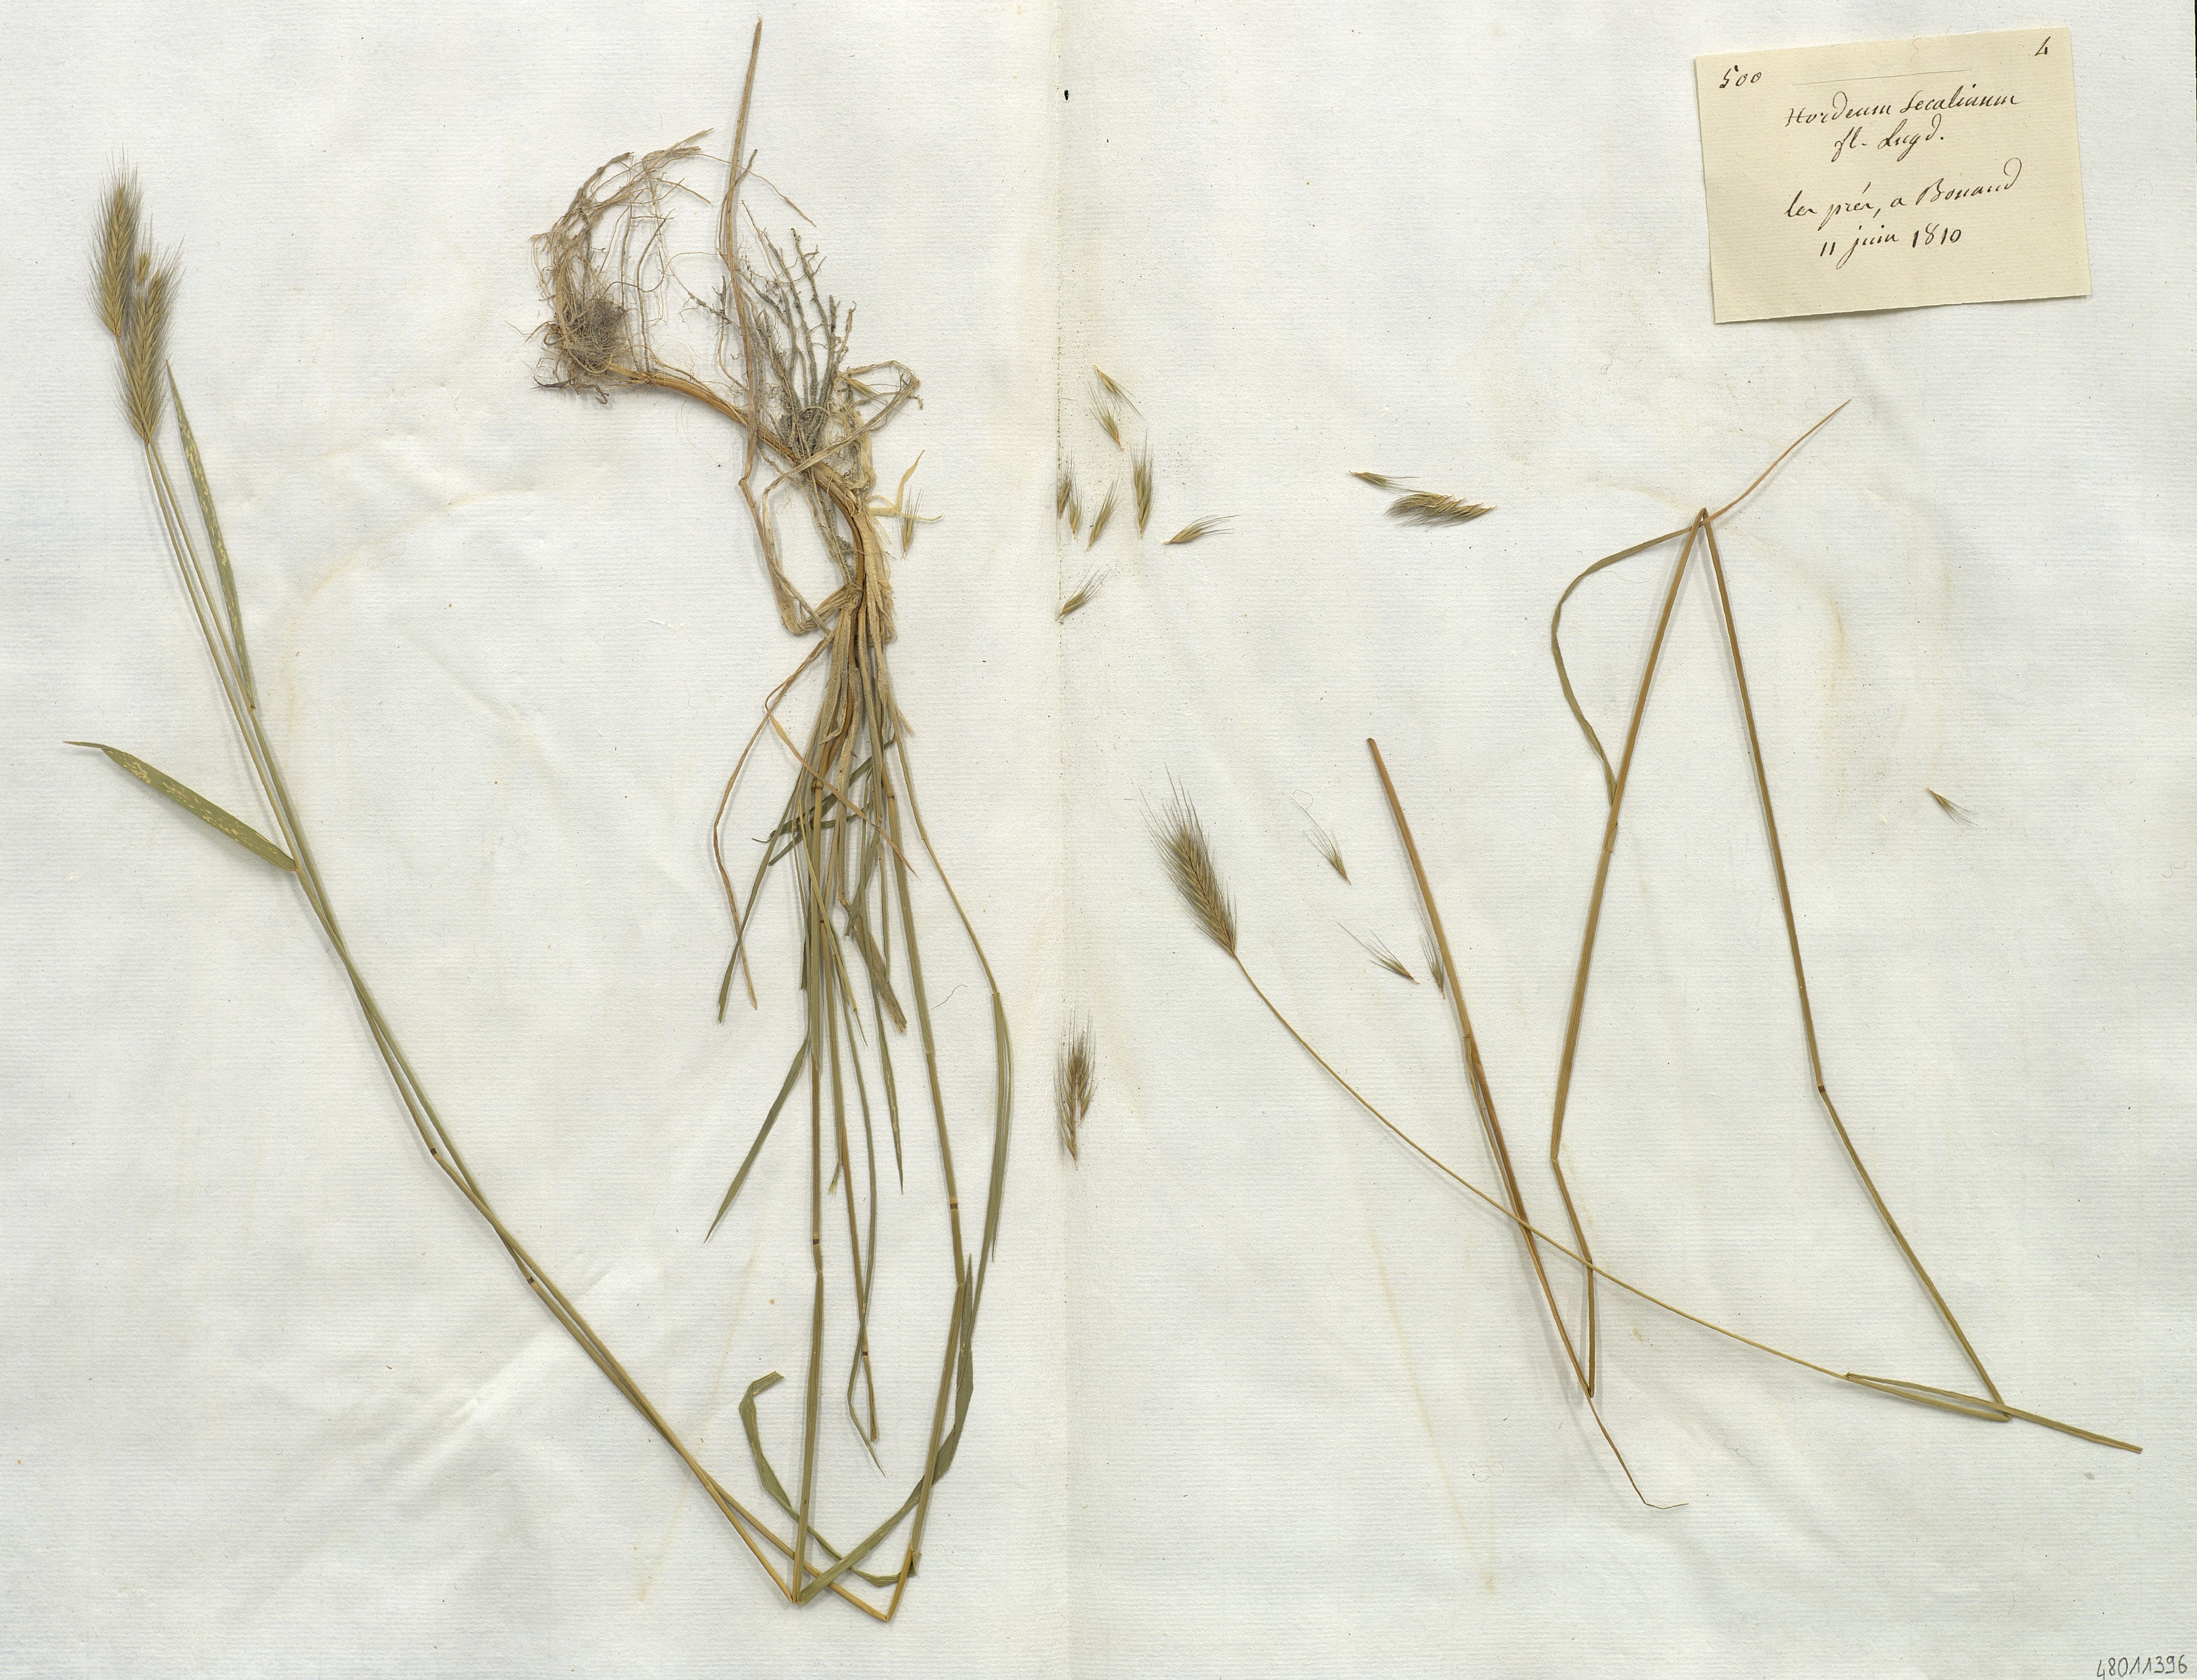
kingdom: Plantae
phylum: Tracheophyta
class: Liliopsida
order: Poales
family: Poaceae
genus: Hordeum
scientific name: Hordeum secalinum
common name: Meadow barley
